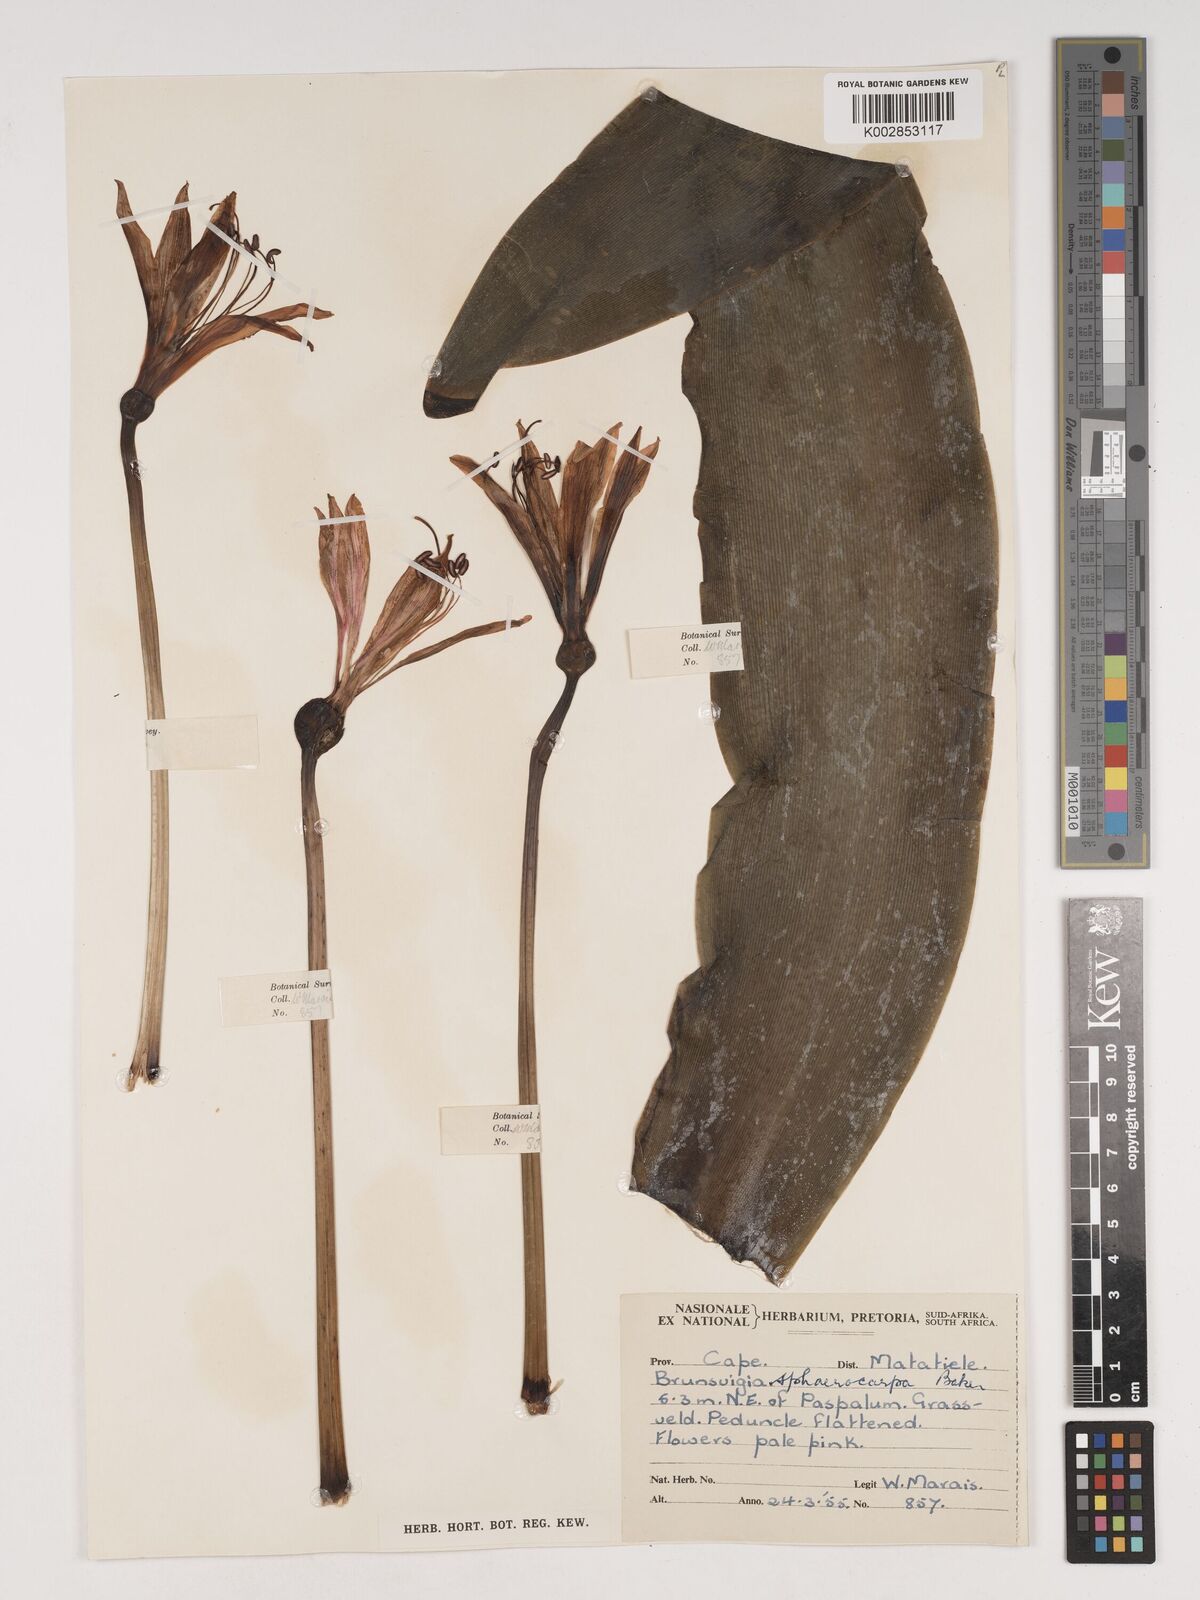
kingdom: Plantae
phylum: Tracheophyta
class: Liliopsida
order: Asparagales
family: Amaryllidaceae
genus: Brunsvigia
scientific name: Brunsvigia grandiflora
